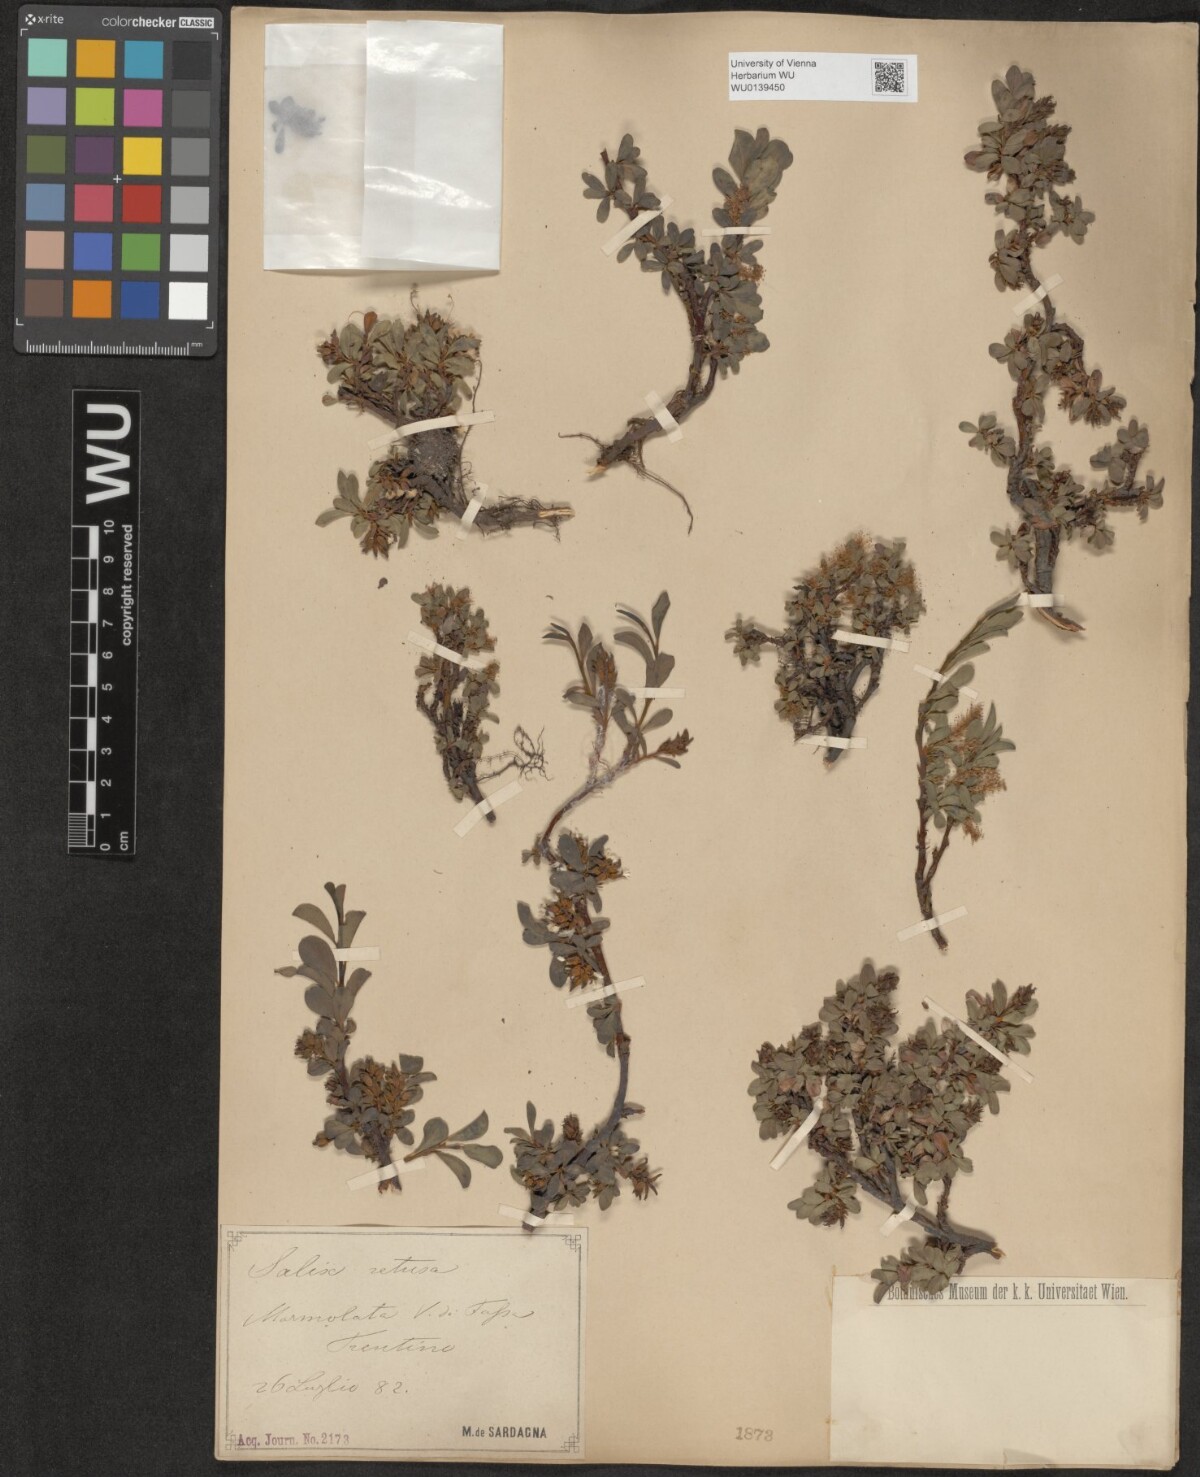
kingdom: Plantae
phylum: Tracheophyta
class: Magnoliopsida
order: Malpighiales
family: Salicaceae
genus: Salix
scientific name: Salix retusa
